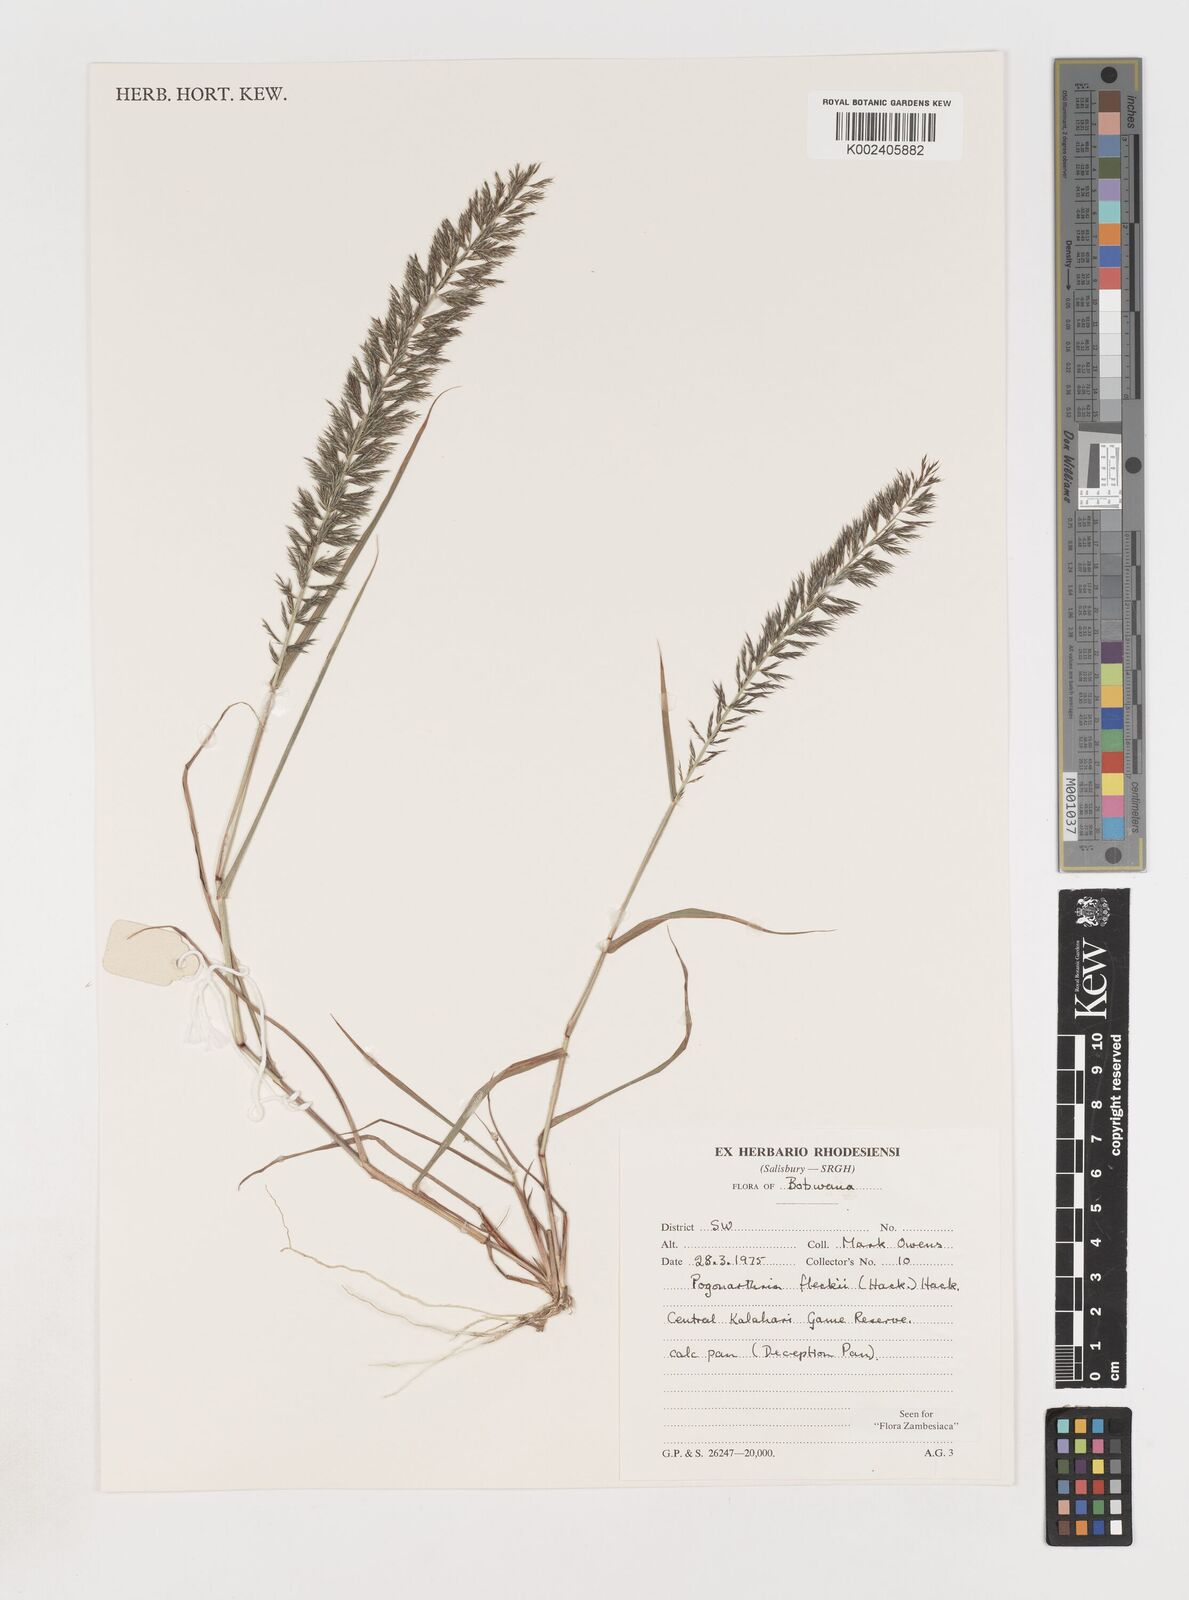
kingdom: Plantae
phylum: Tracheophyta
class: Liliopsida
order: Poales
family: Poaceae
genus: Pogonarthria
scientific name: Pogonarthria fleckii
